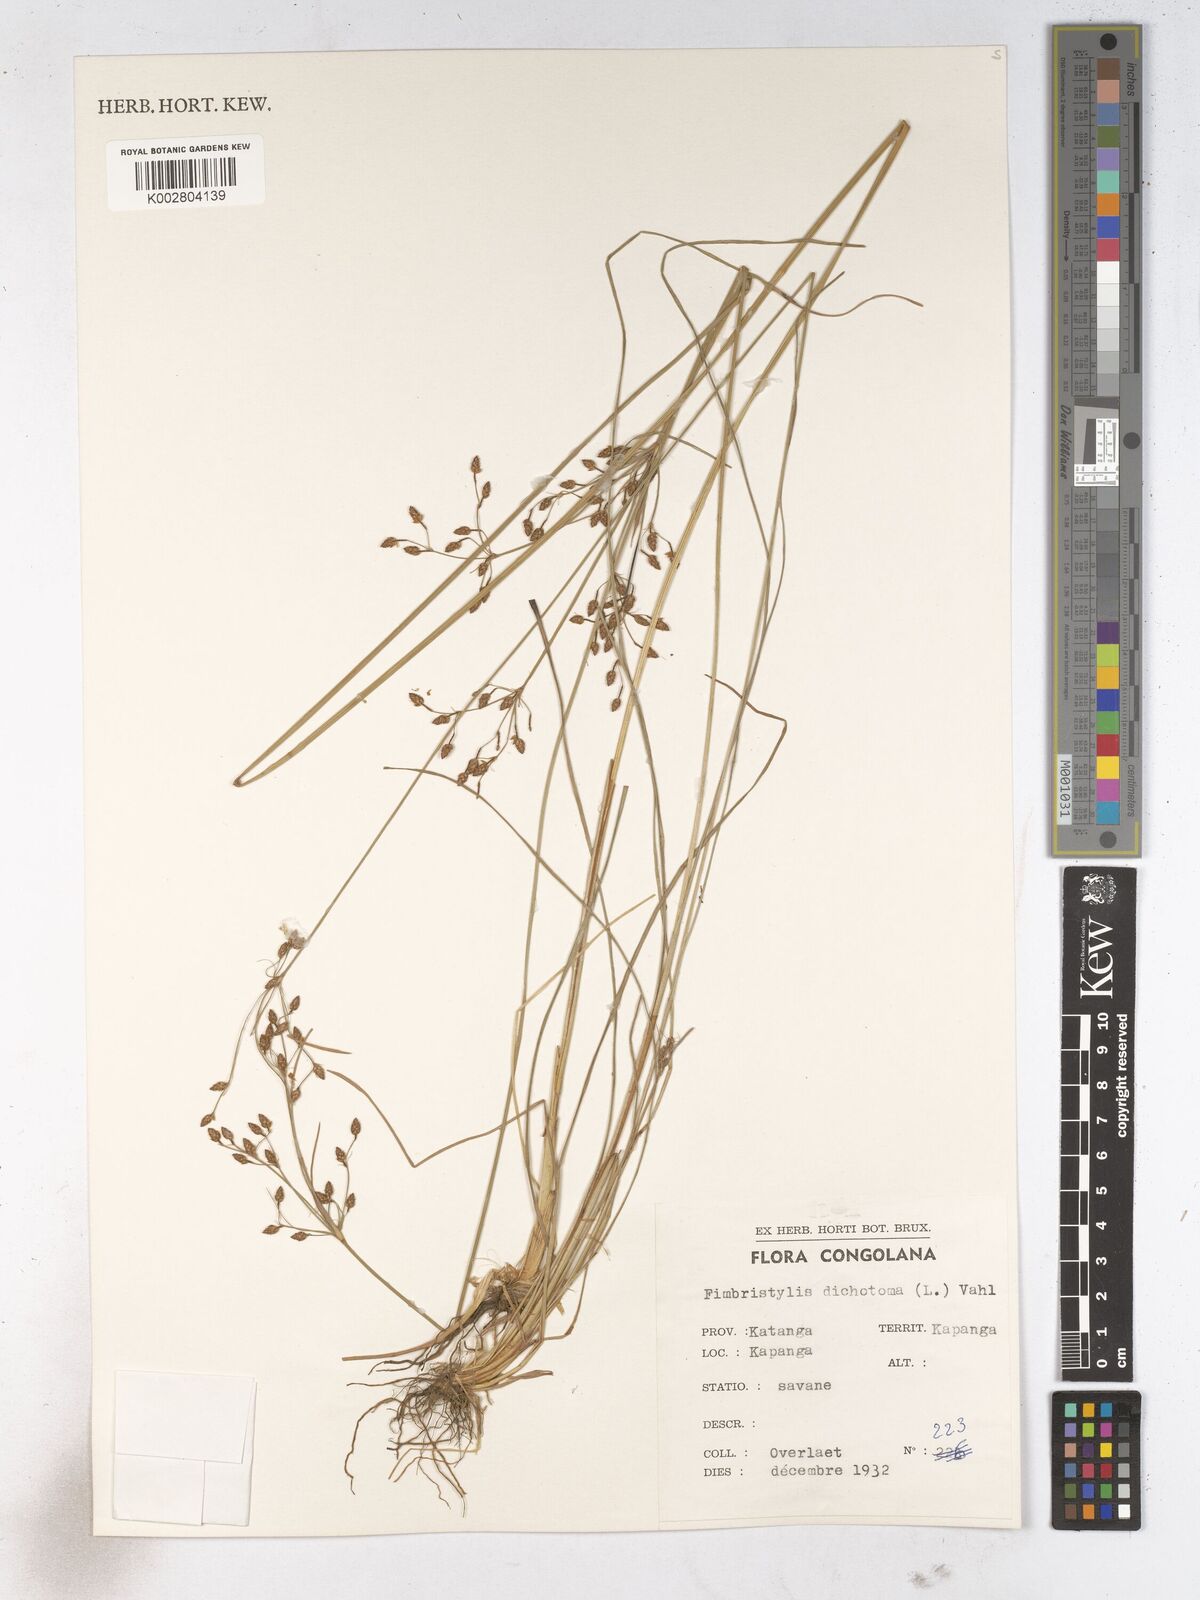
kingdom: Plantae
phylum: Tracheophyta
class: Liliopsida
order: Poales
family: Cyperaceae
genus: Fimbristylis
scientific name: Fimbristylis dichotoma
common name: Forked fimbry
